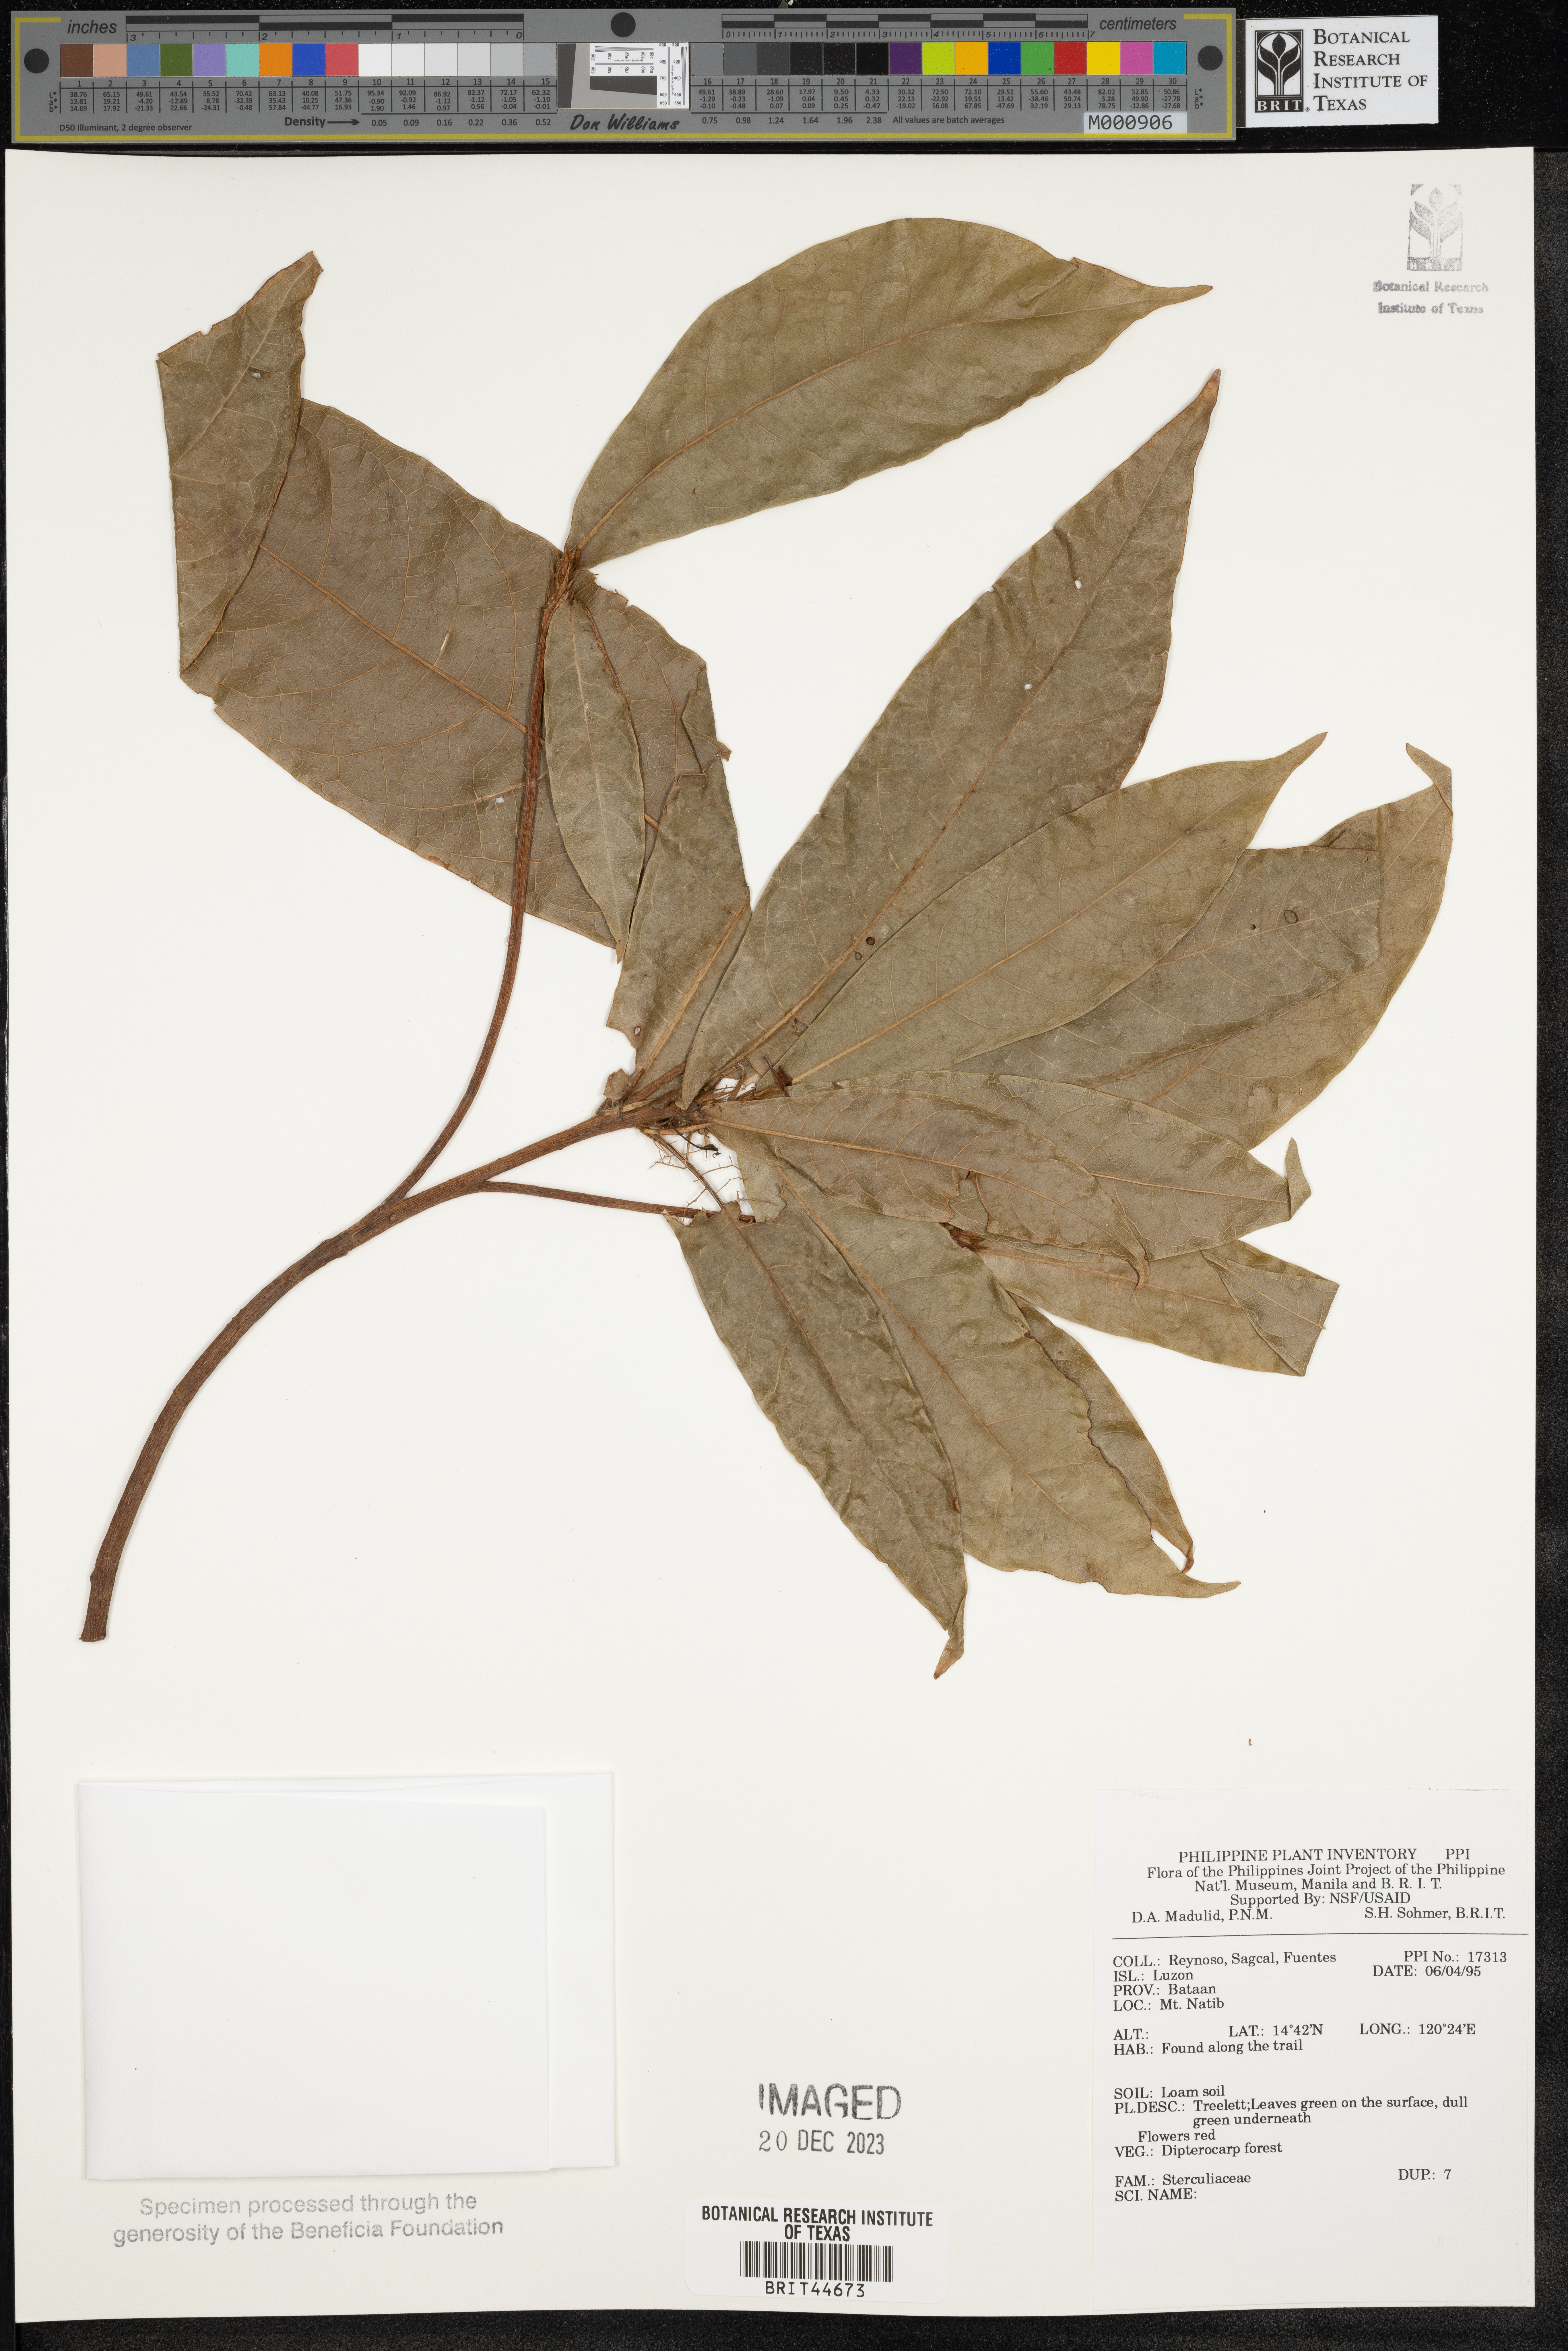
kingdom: Plantae
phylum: Tracheophyta
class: Magnoliopsida
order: Malvales
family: Sterculiaceae
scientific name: Sterculiaceae
